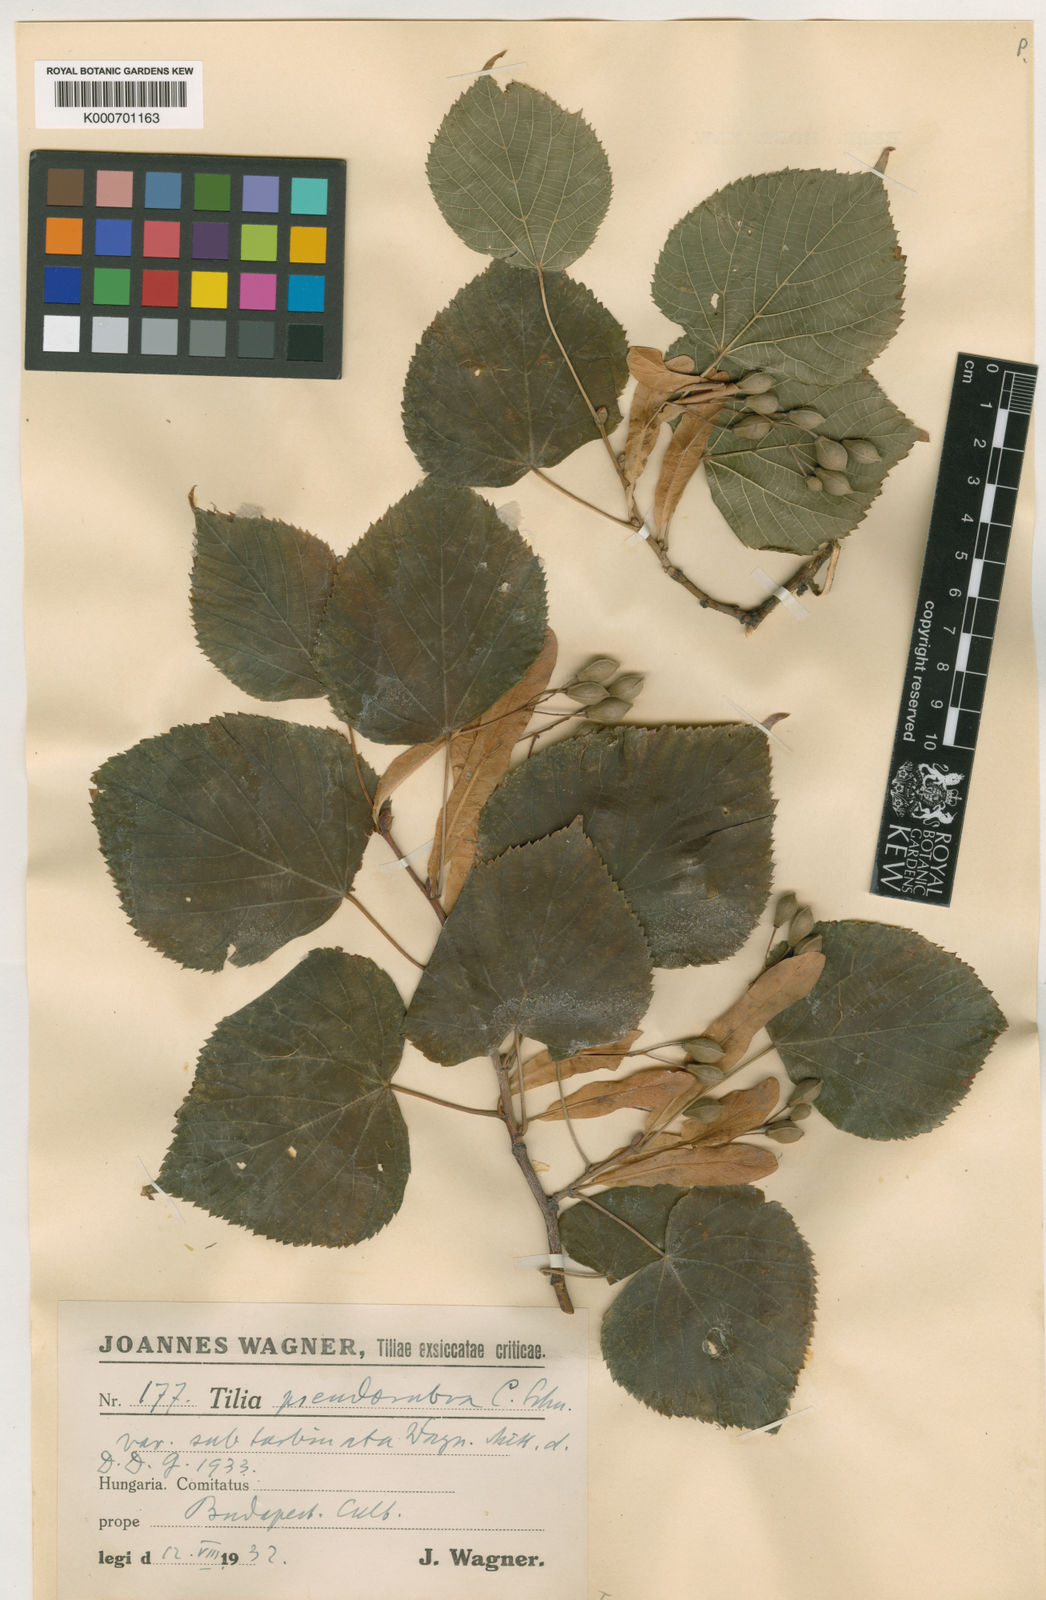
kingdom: Plantae
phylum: Tracheophyta
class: Magnoliopsida
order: Malvales
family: Malvaceae
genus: Tilia
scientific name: Tilia
